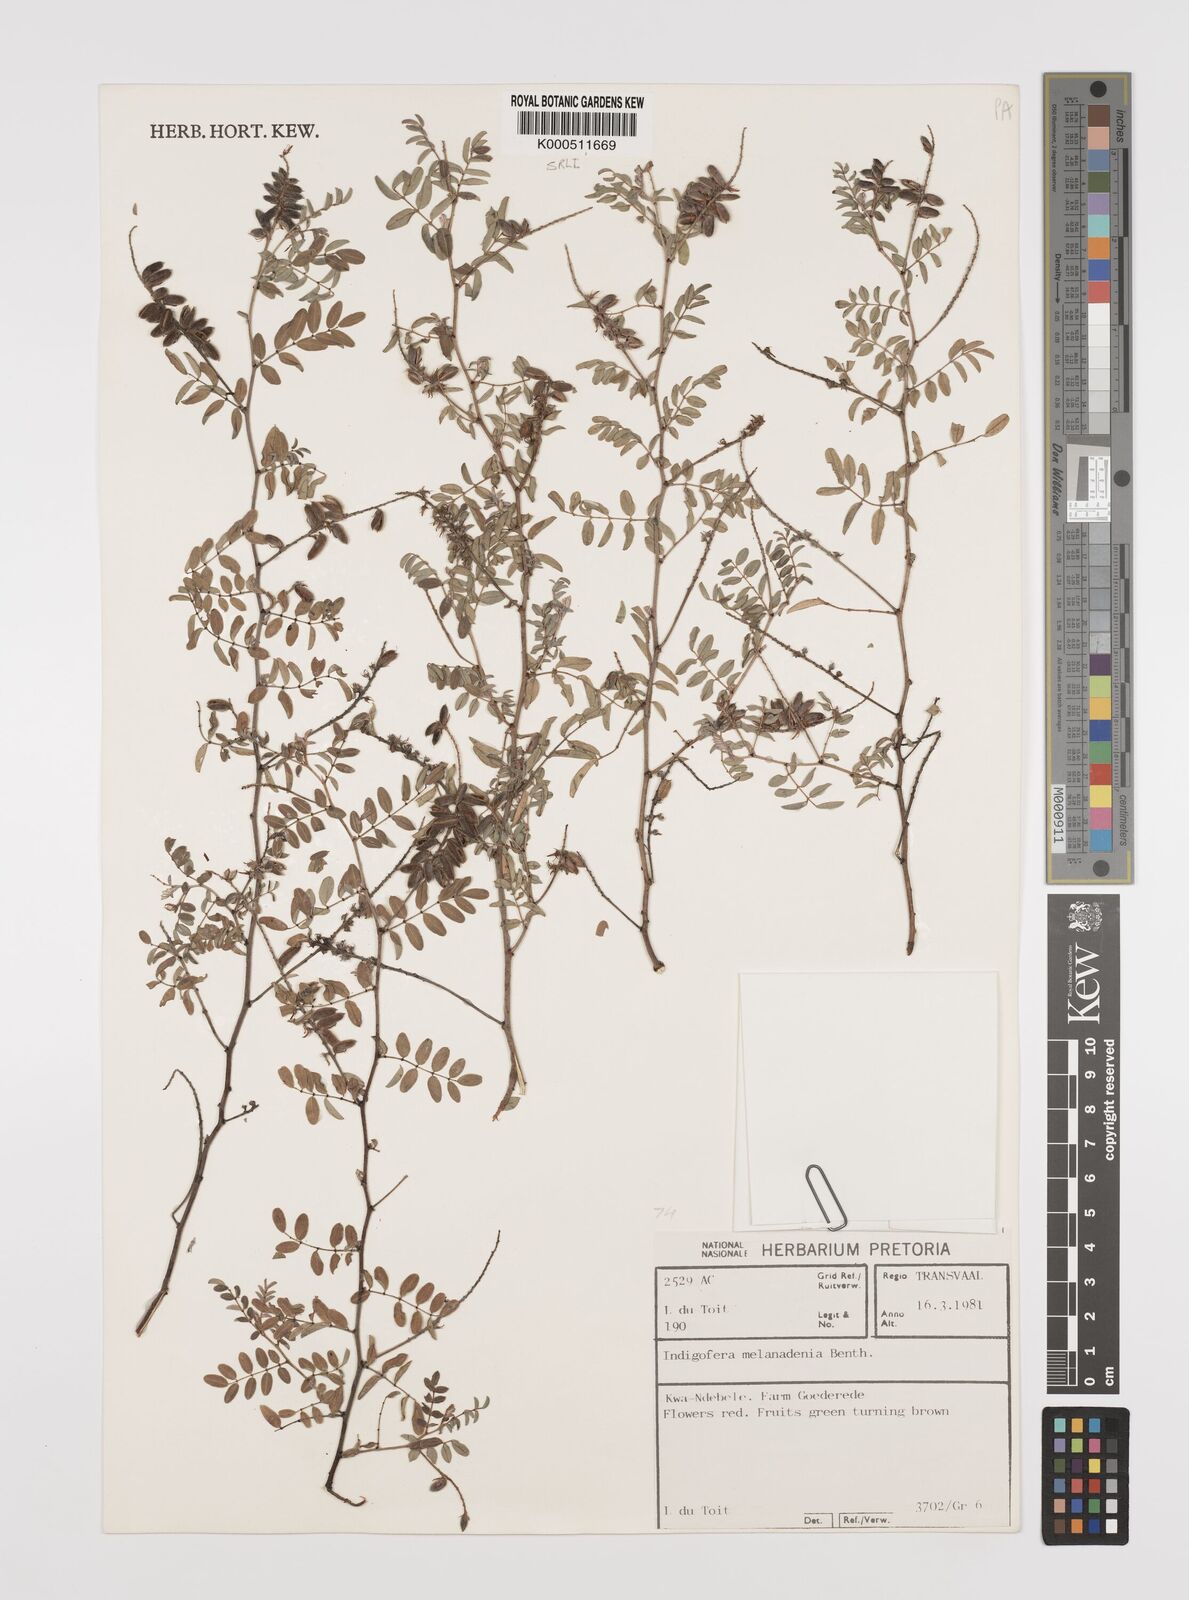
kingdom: Plantae
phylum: Tracheophyta
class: Magnoliopsida
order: Fabales
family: Fabaceae
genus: Indigofera
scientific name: Indigofera melanadenia
